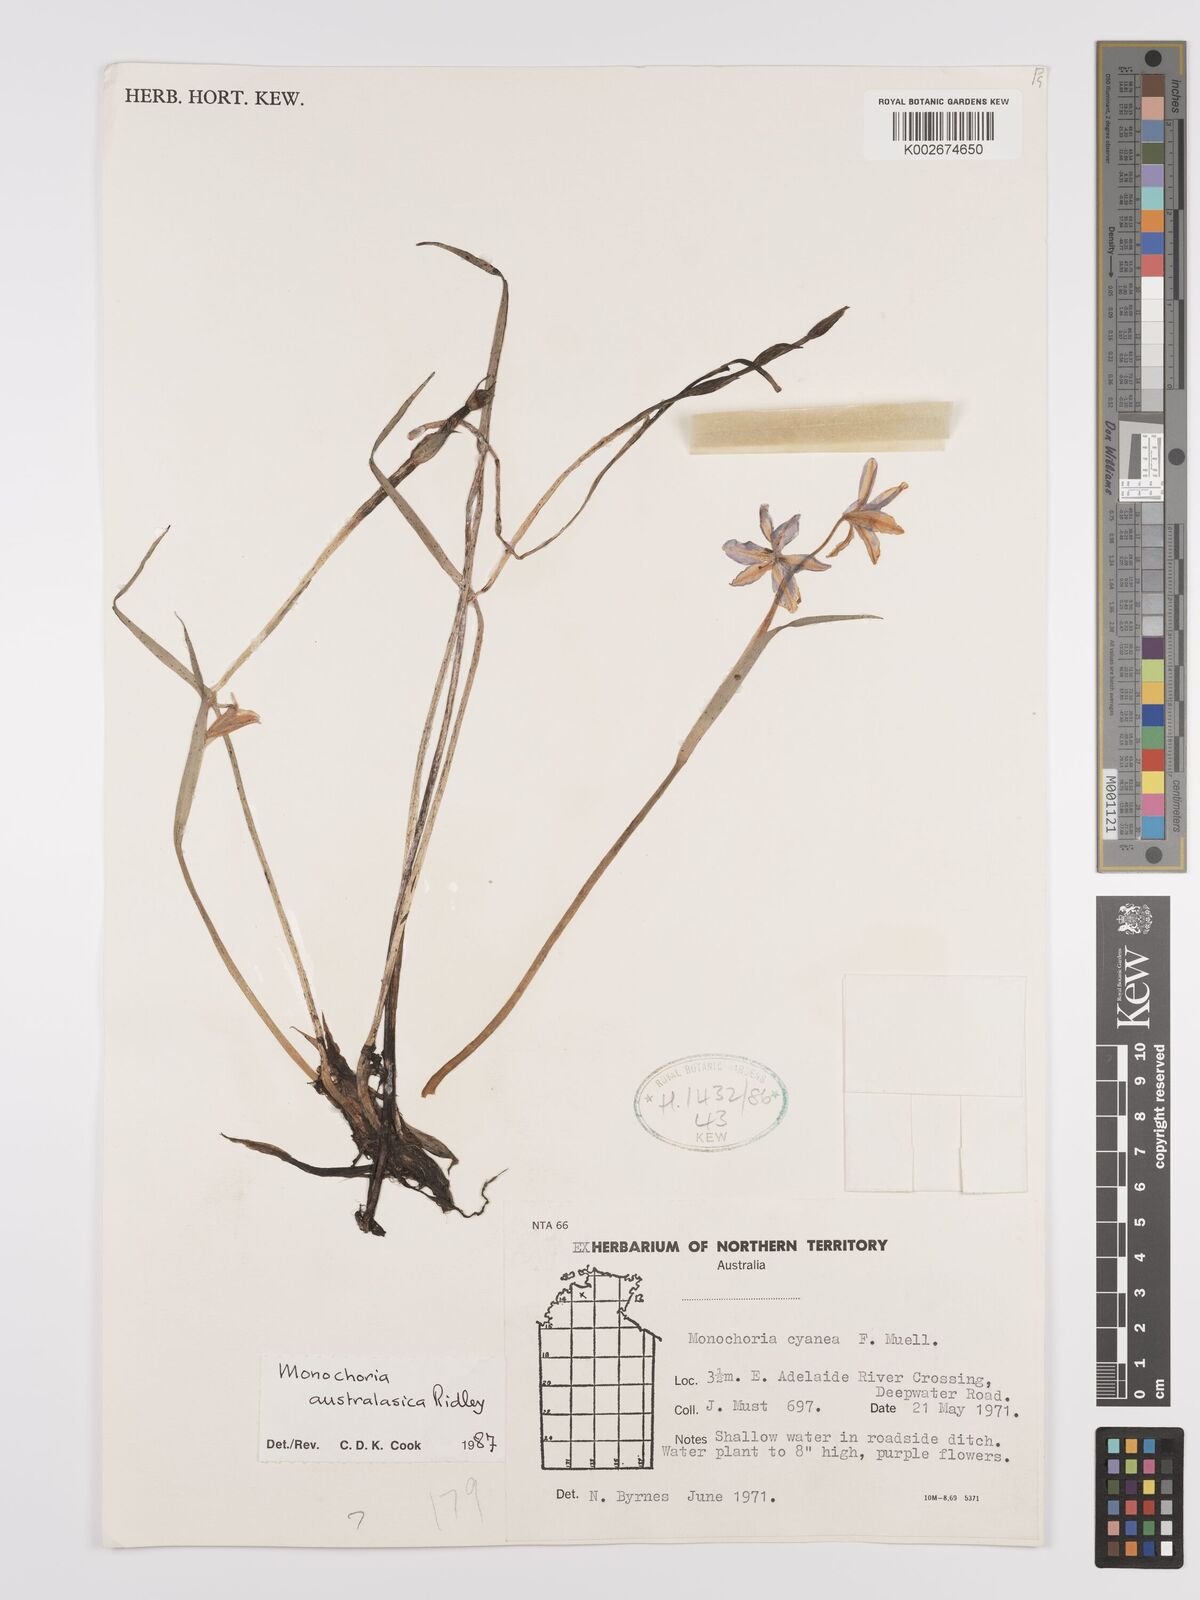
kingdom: Plantae
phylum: Tracheophyta
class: Liliopsida
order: Commelinales
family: Pontederiaceae
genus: Pontederia
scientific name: Pontederia australasica
